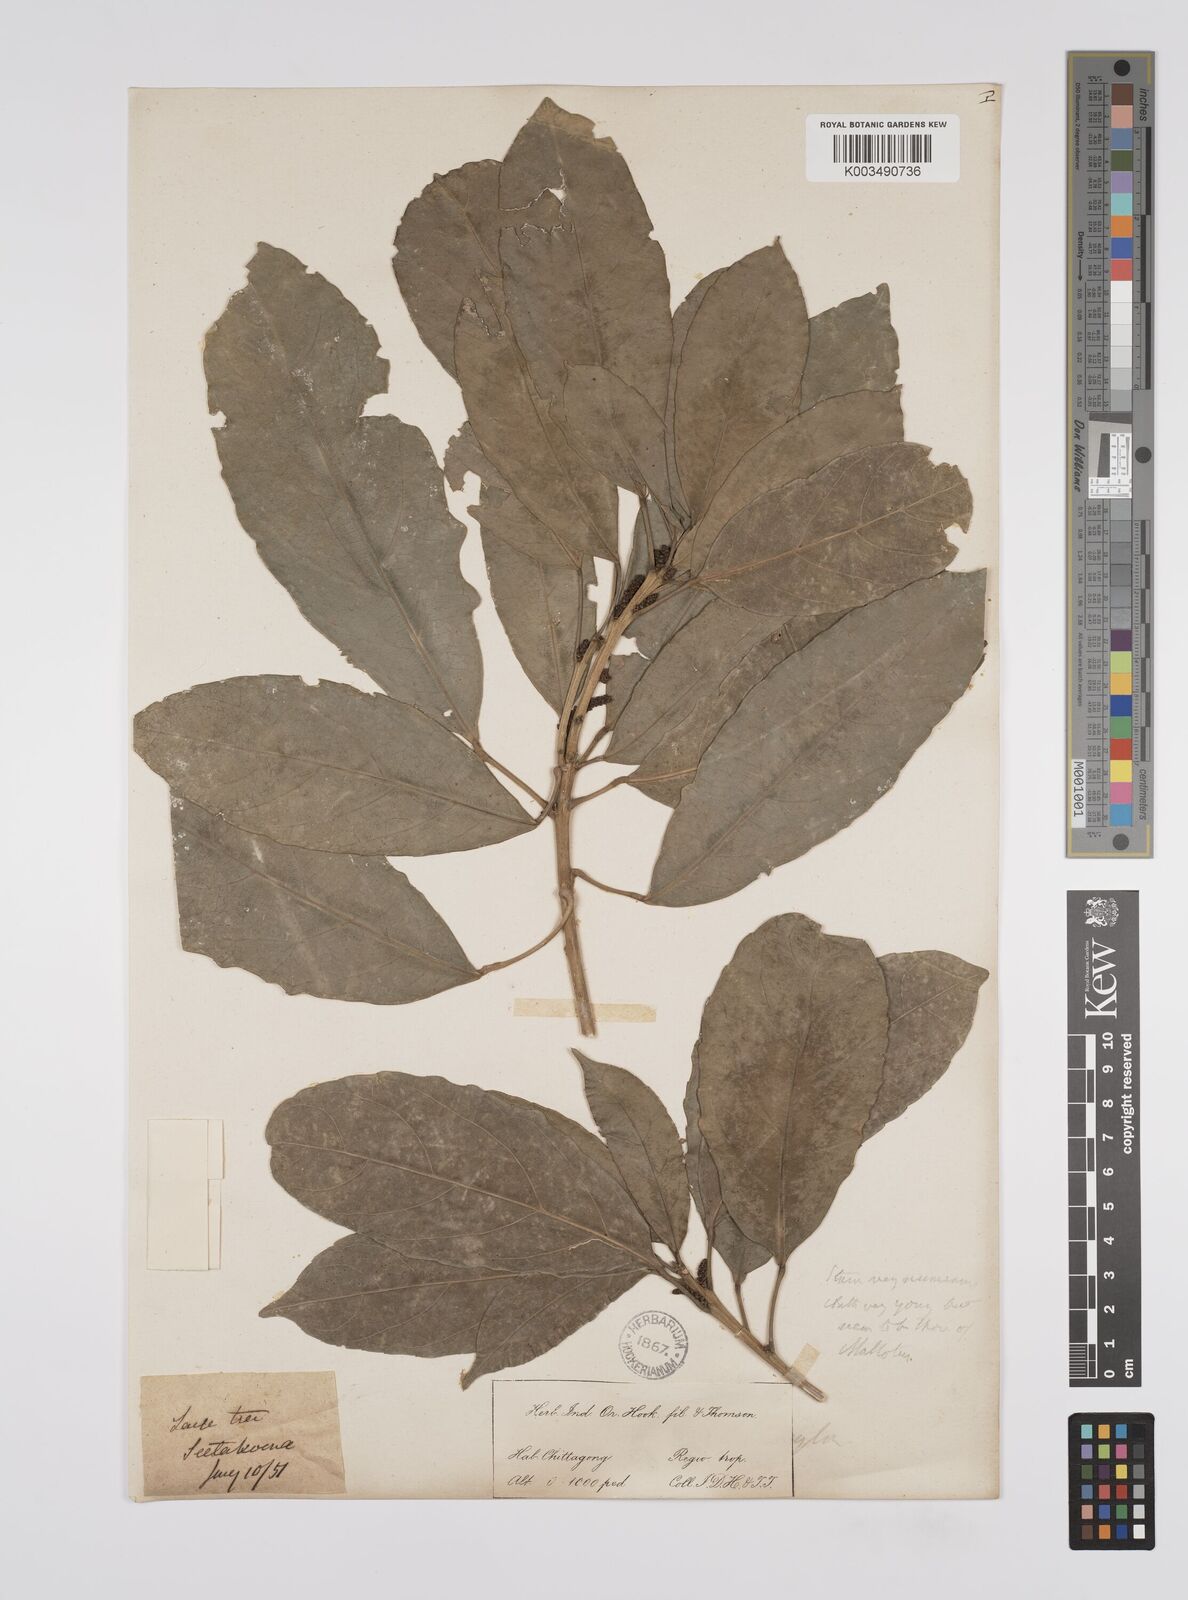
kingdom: Plantae
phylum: Tracheophyta
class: Magnoliopsida
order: Malpighiales
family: Euphorbiaceae
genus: Acalypha
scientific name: Acalypha spiciflora
